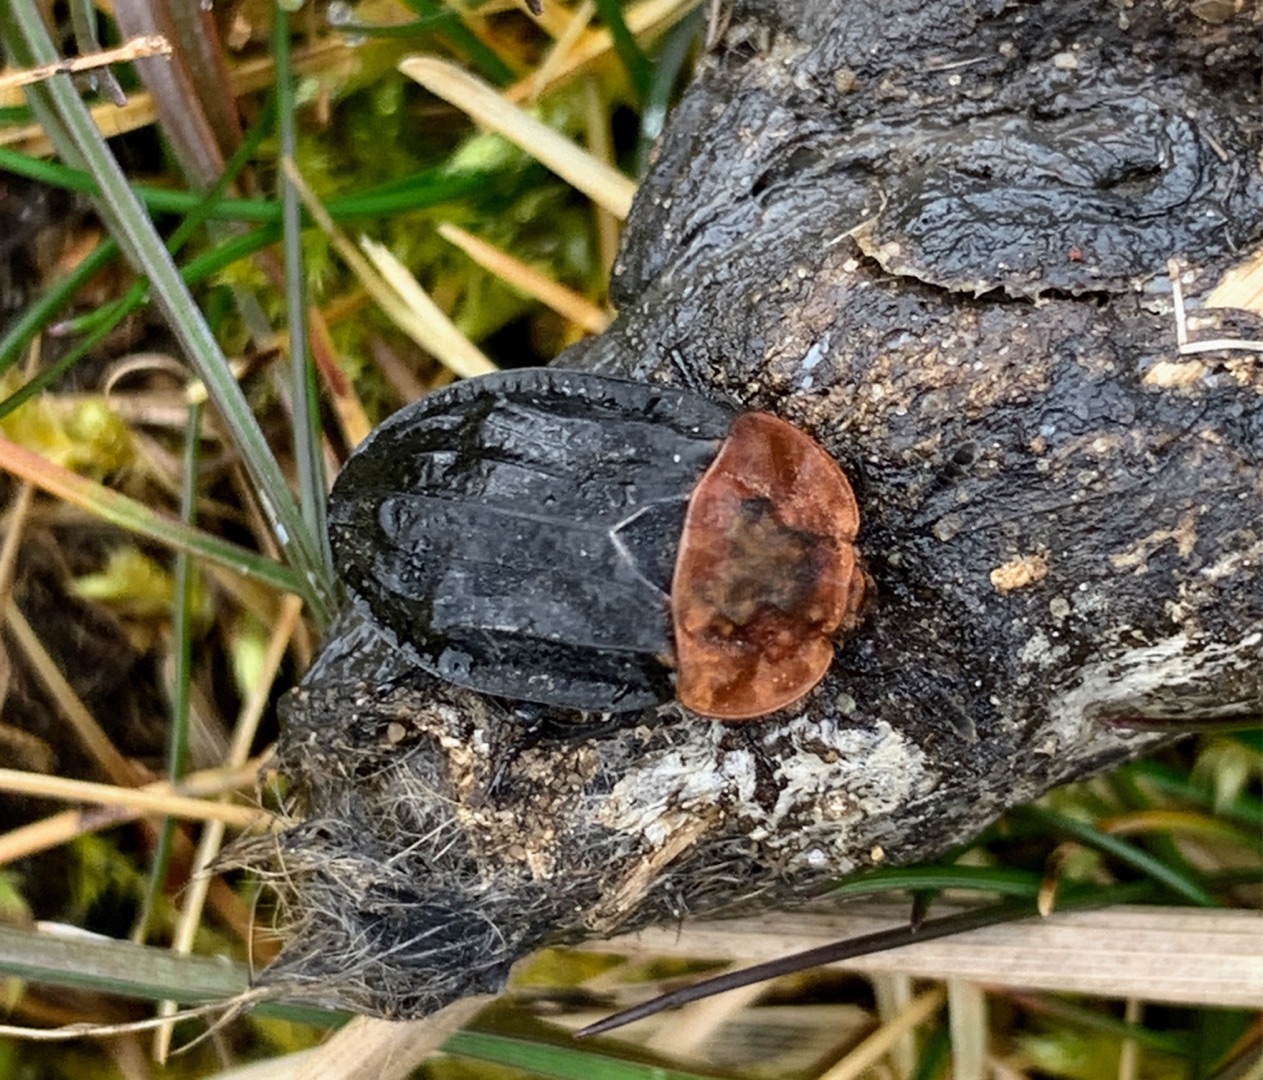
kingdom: Animalia
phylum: Arthropoda
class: Insecta
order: Coleoptera
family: Staphylinidae
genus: Oiceoptoma
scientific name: Oiceoptoma thoracicum
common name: Rødbrystet ådselbille
